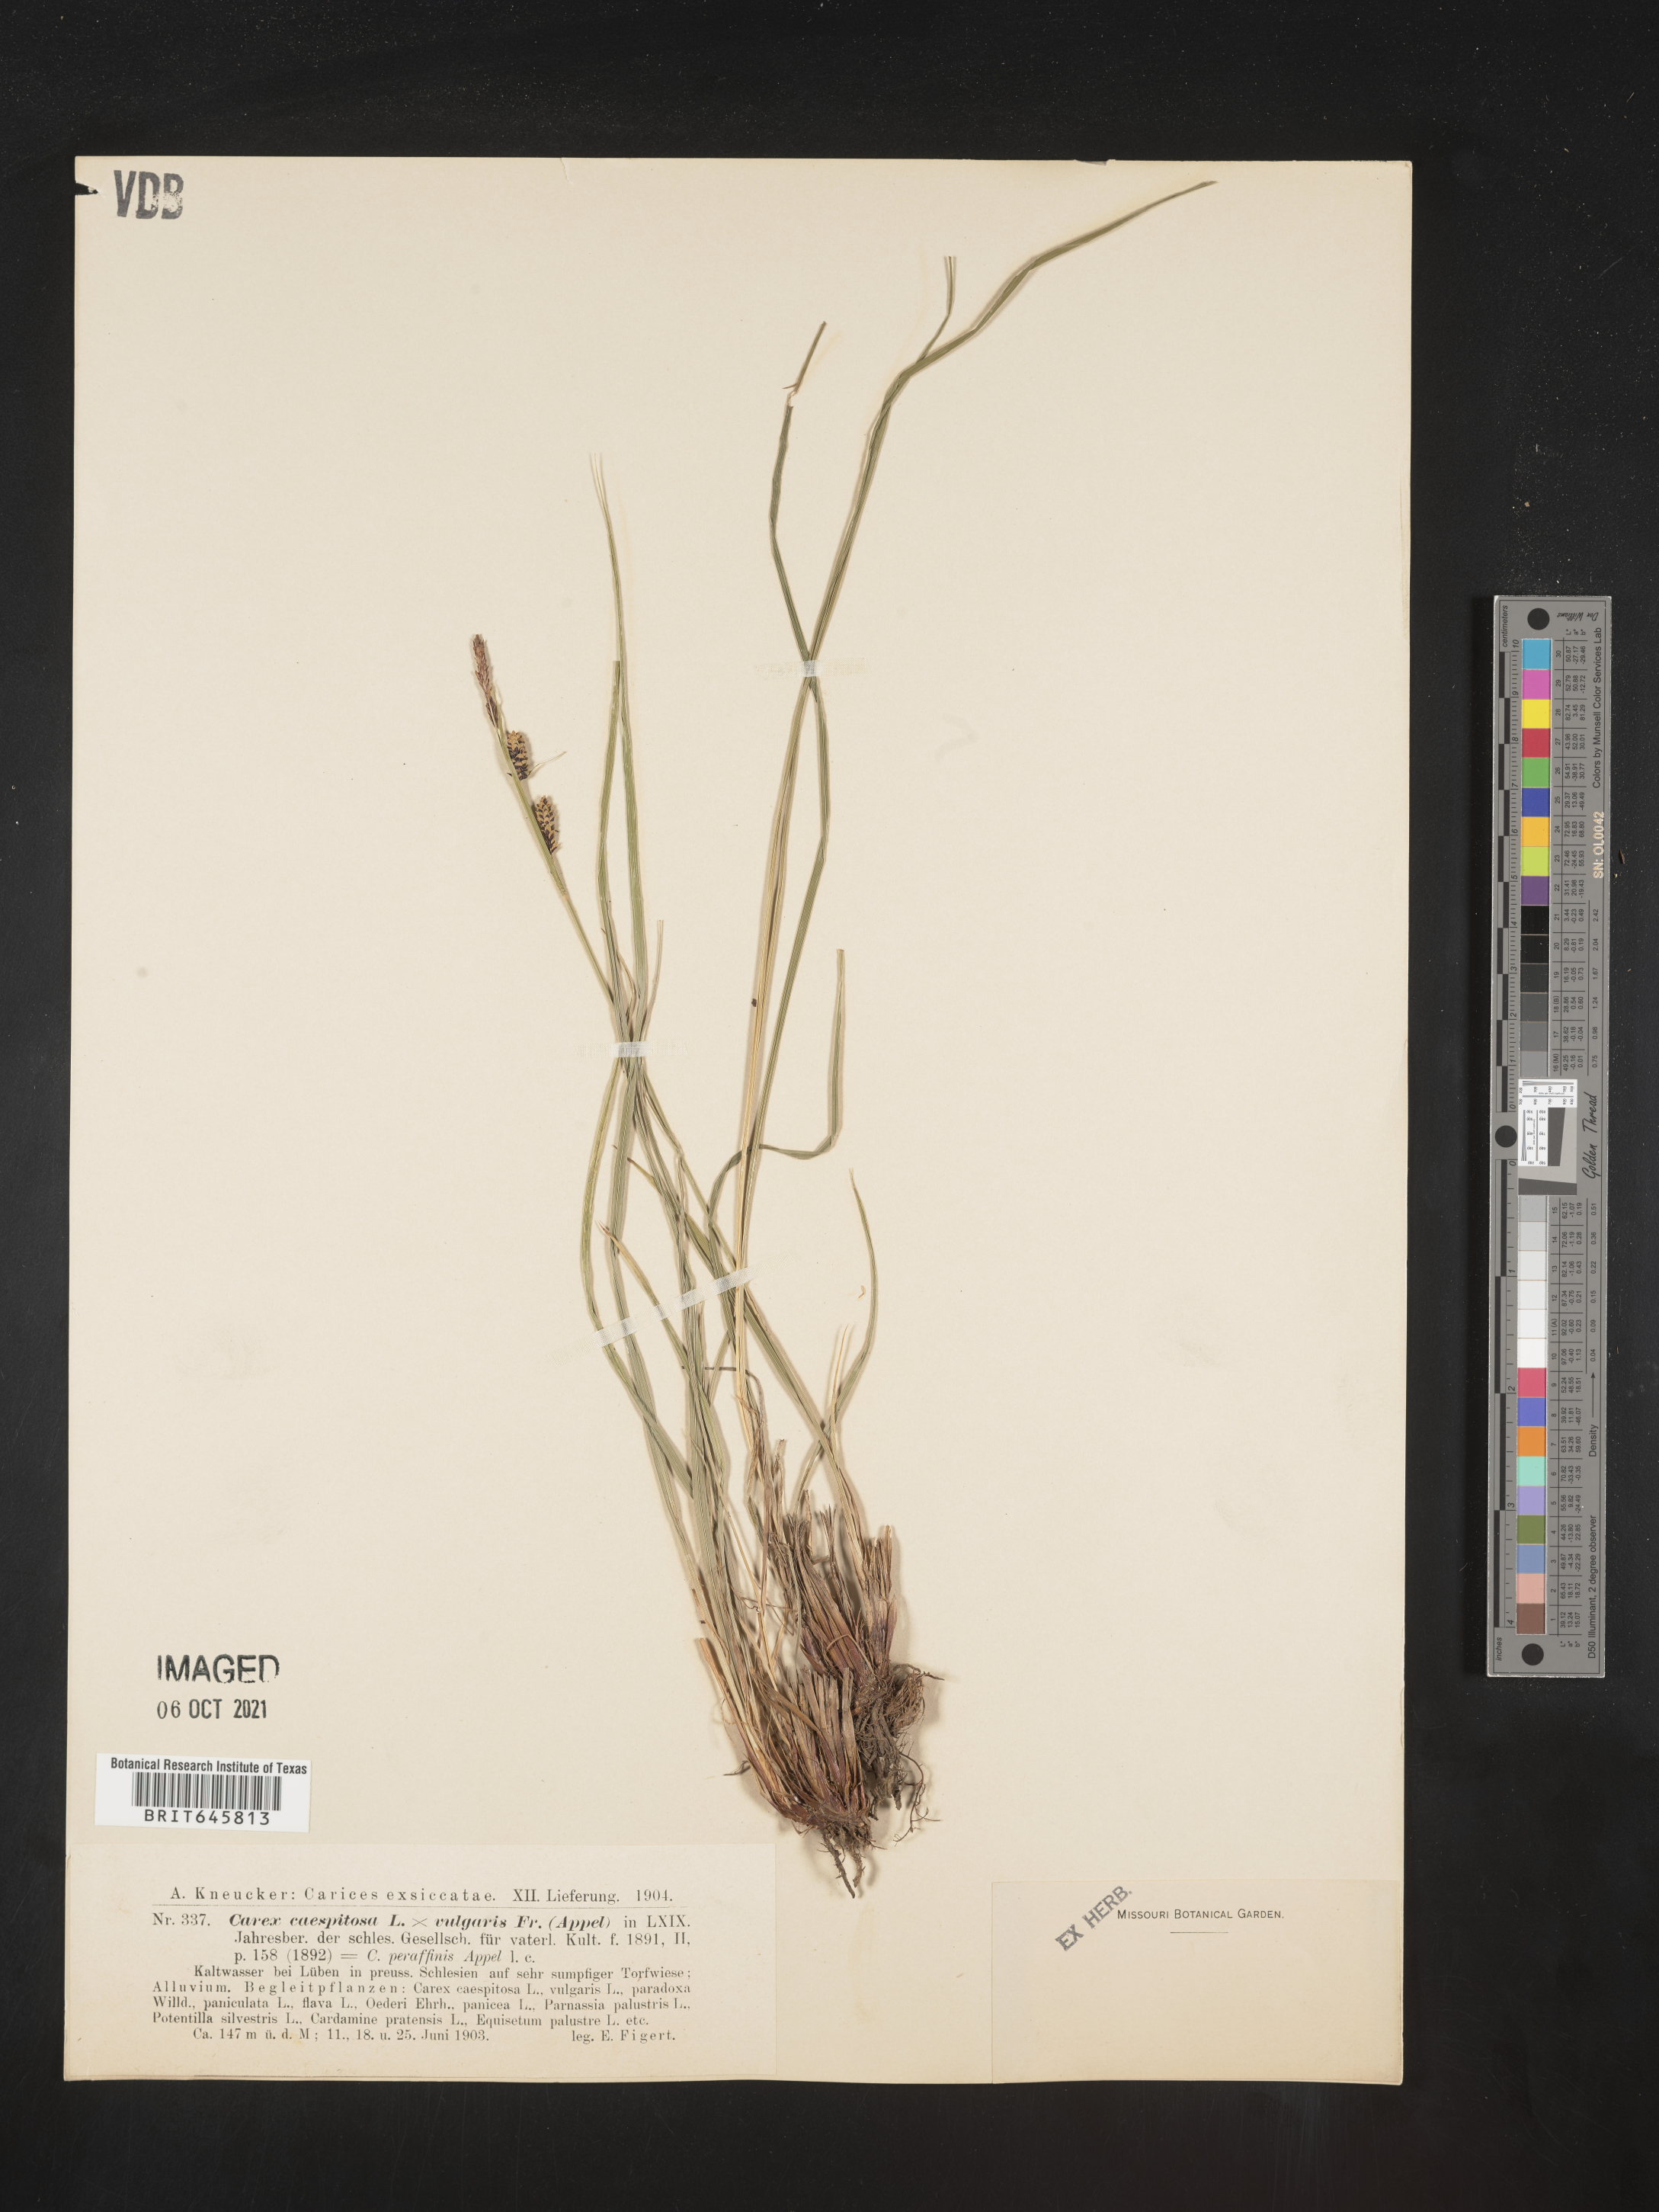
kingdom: Plantae
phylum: Tracheophyta
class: Liliopsida
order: Poales
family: Cyperaceae
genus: Carex
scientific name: Carex cespitosa
